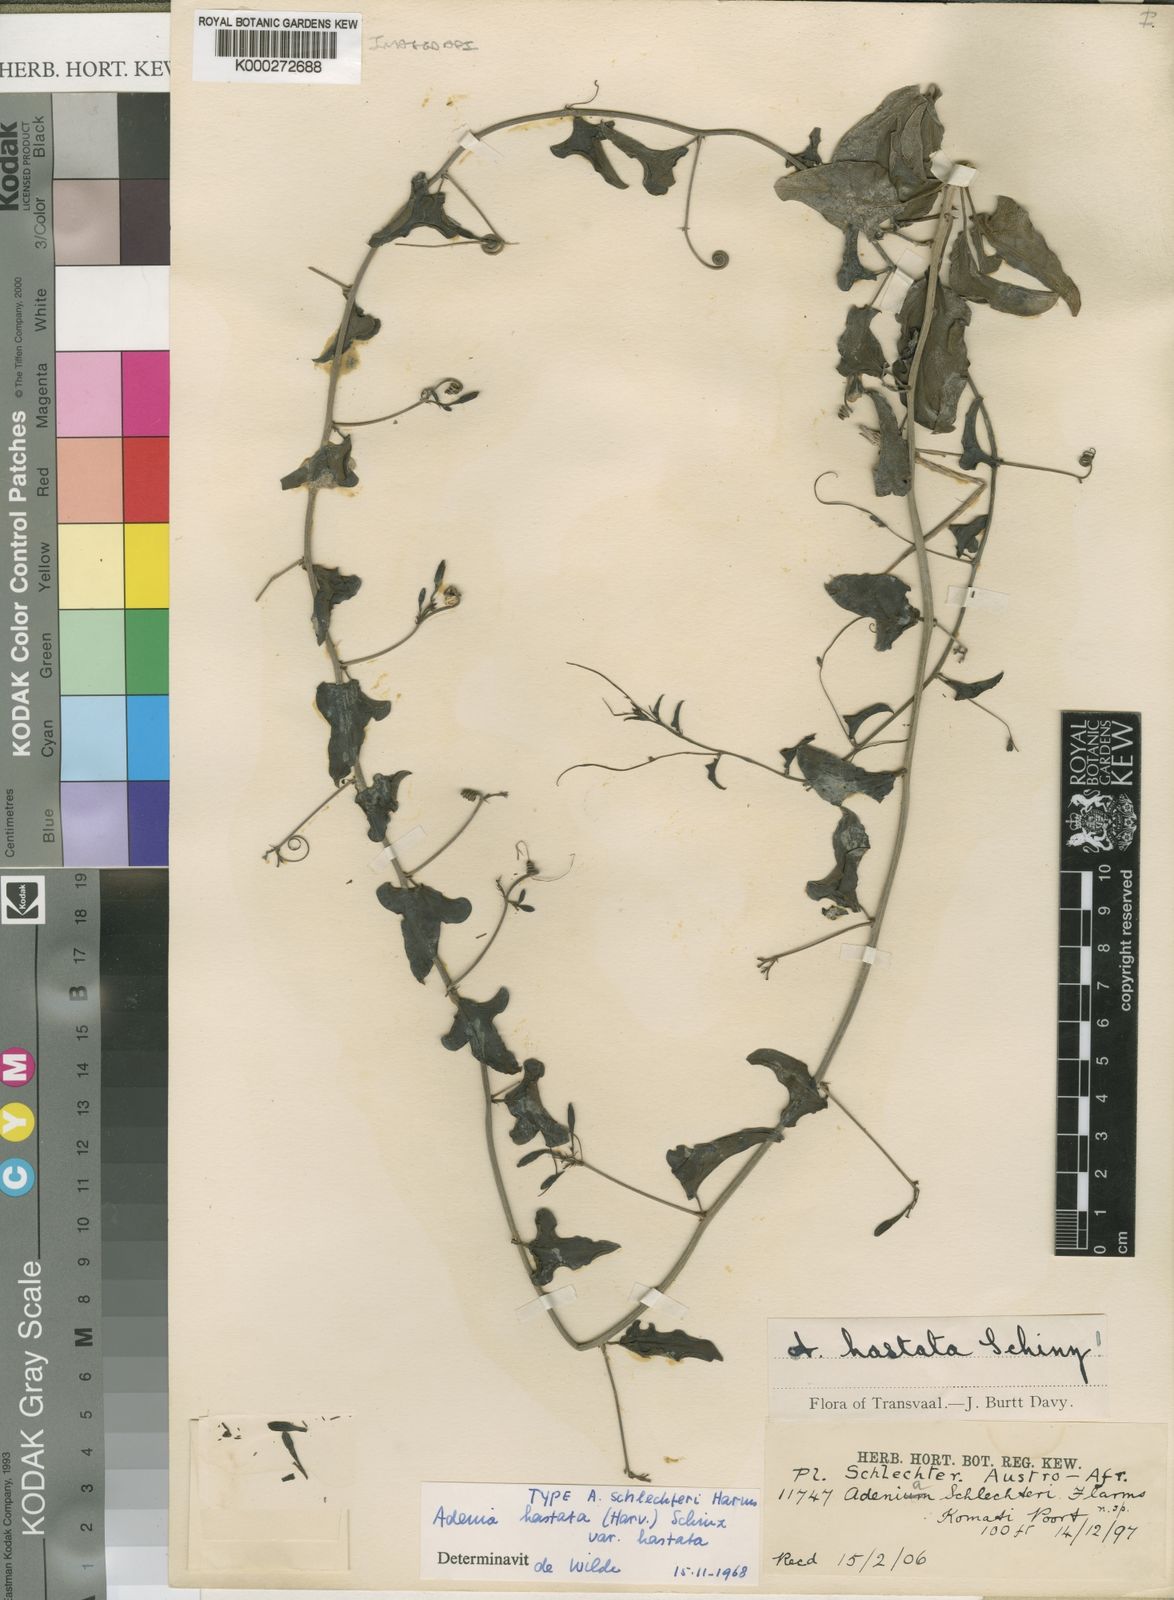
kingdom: Plantae
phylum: Tracheophyta
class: Magnoliopsida
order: Gentianales
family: Apocynaceae
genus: Adenium
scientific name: Adenium
